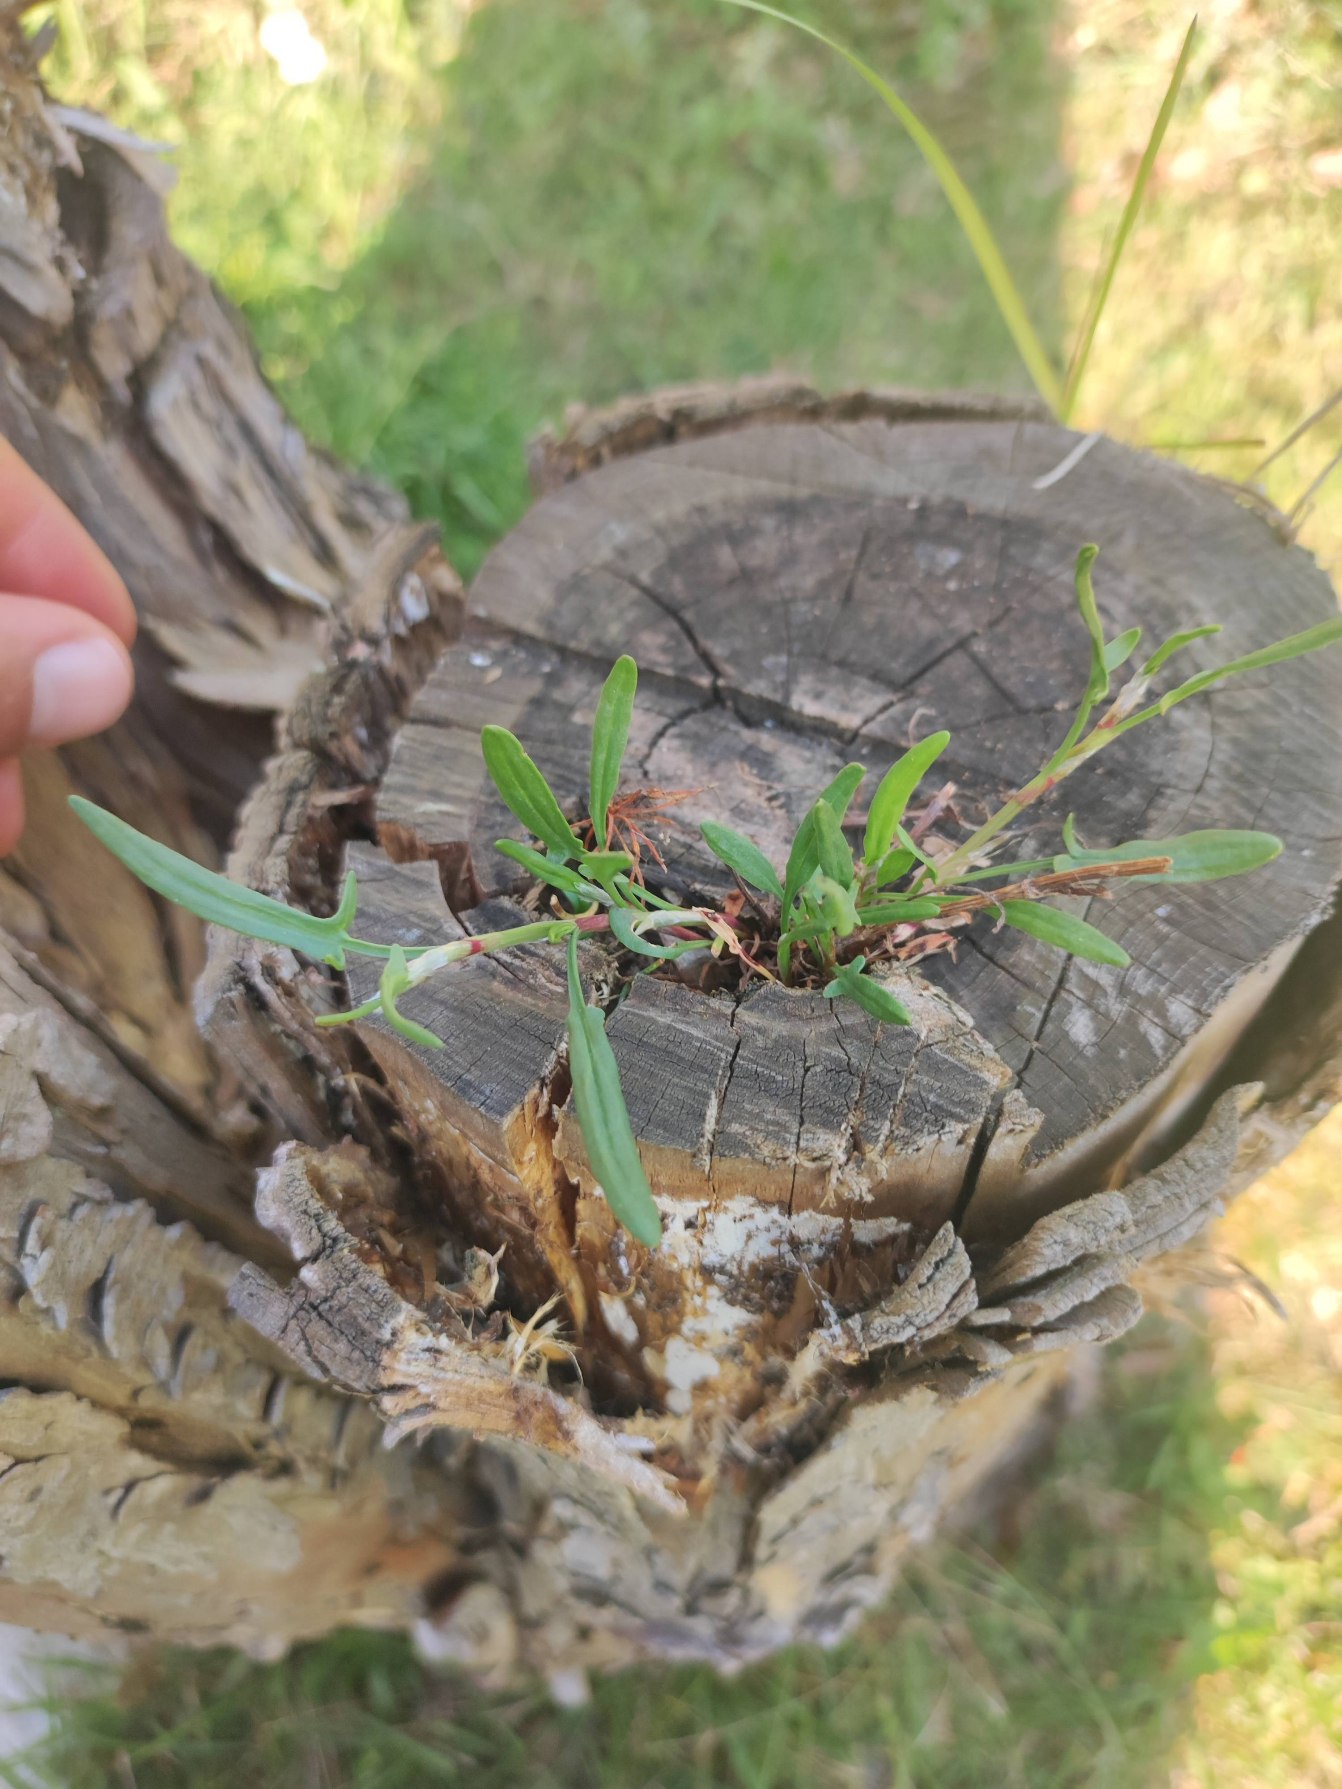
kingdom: Plantae
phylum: Tracheophyta
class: Magnoliopsida
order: Caryophyllales
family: Polygonaceae
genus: Rumex
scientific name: Rumex acetosella
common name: Rødknæ
